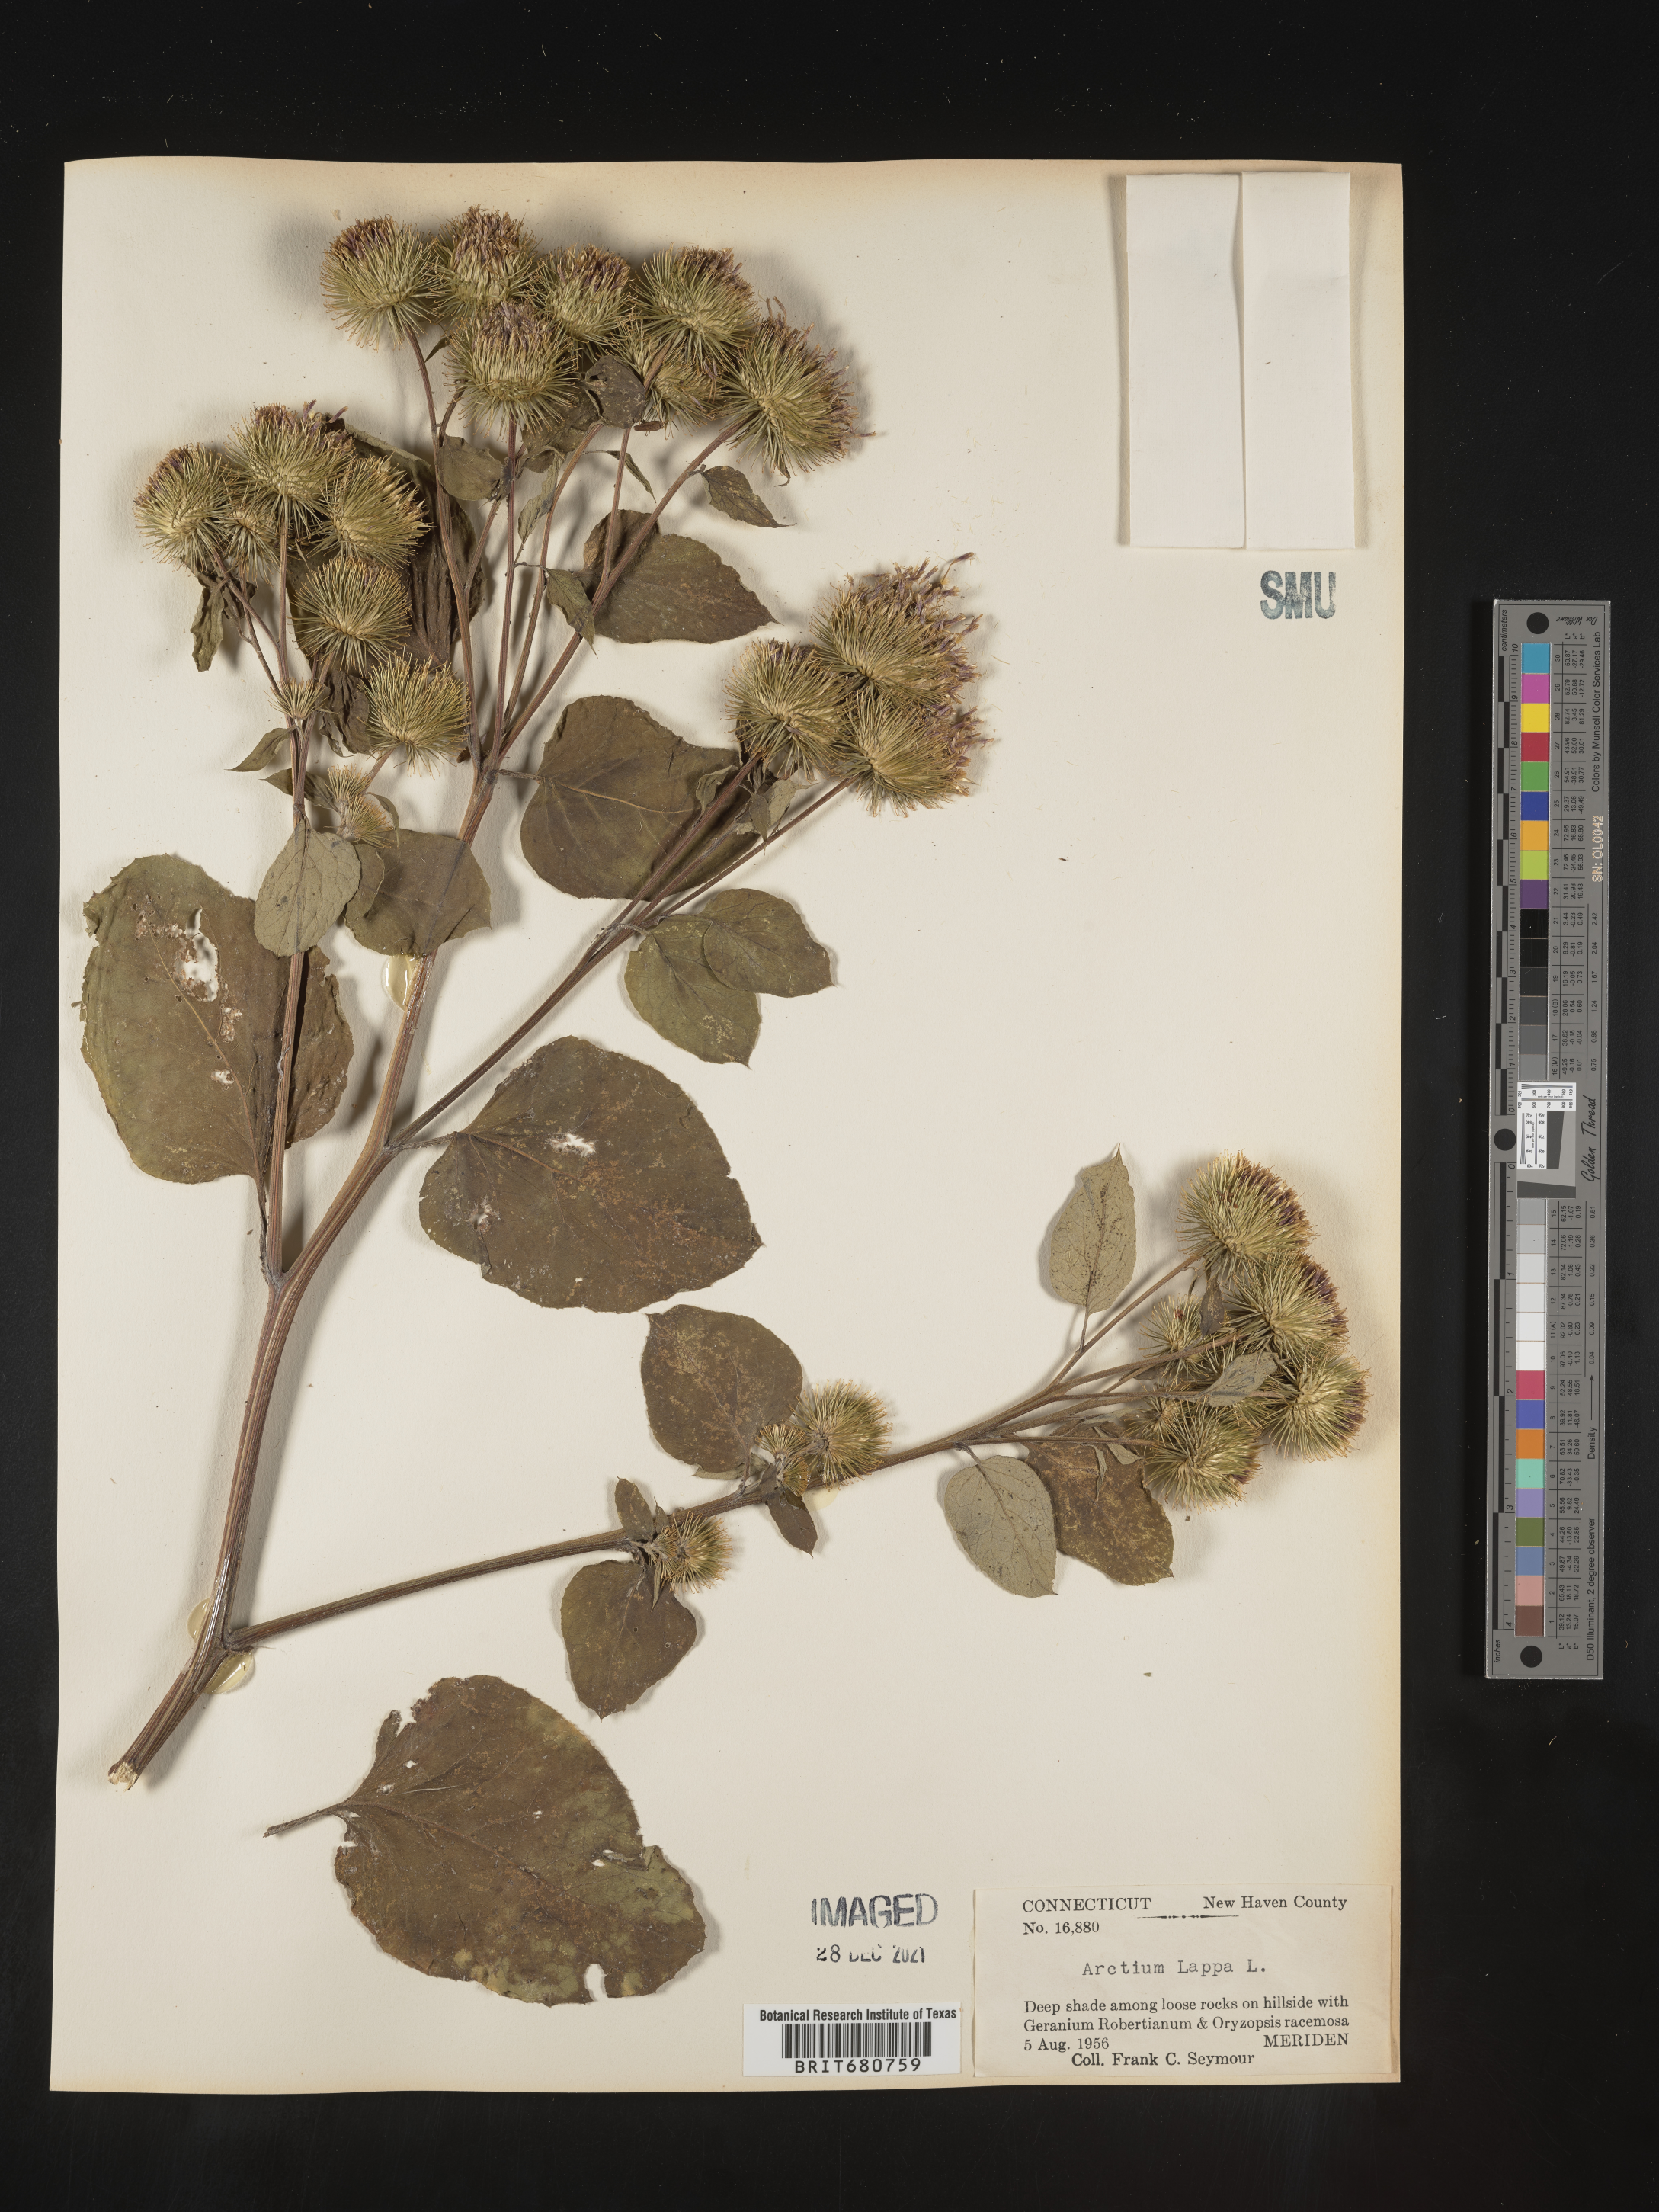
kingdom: Plantae
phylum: Tracheophyta
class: Magnoliopsida
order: Asterales
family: Asteraceae
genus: Arctium
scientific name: Arctium lappa
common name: Greater burdock
